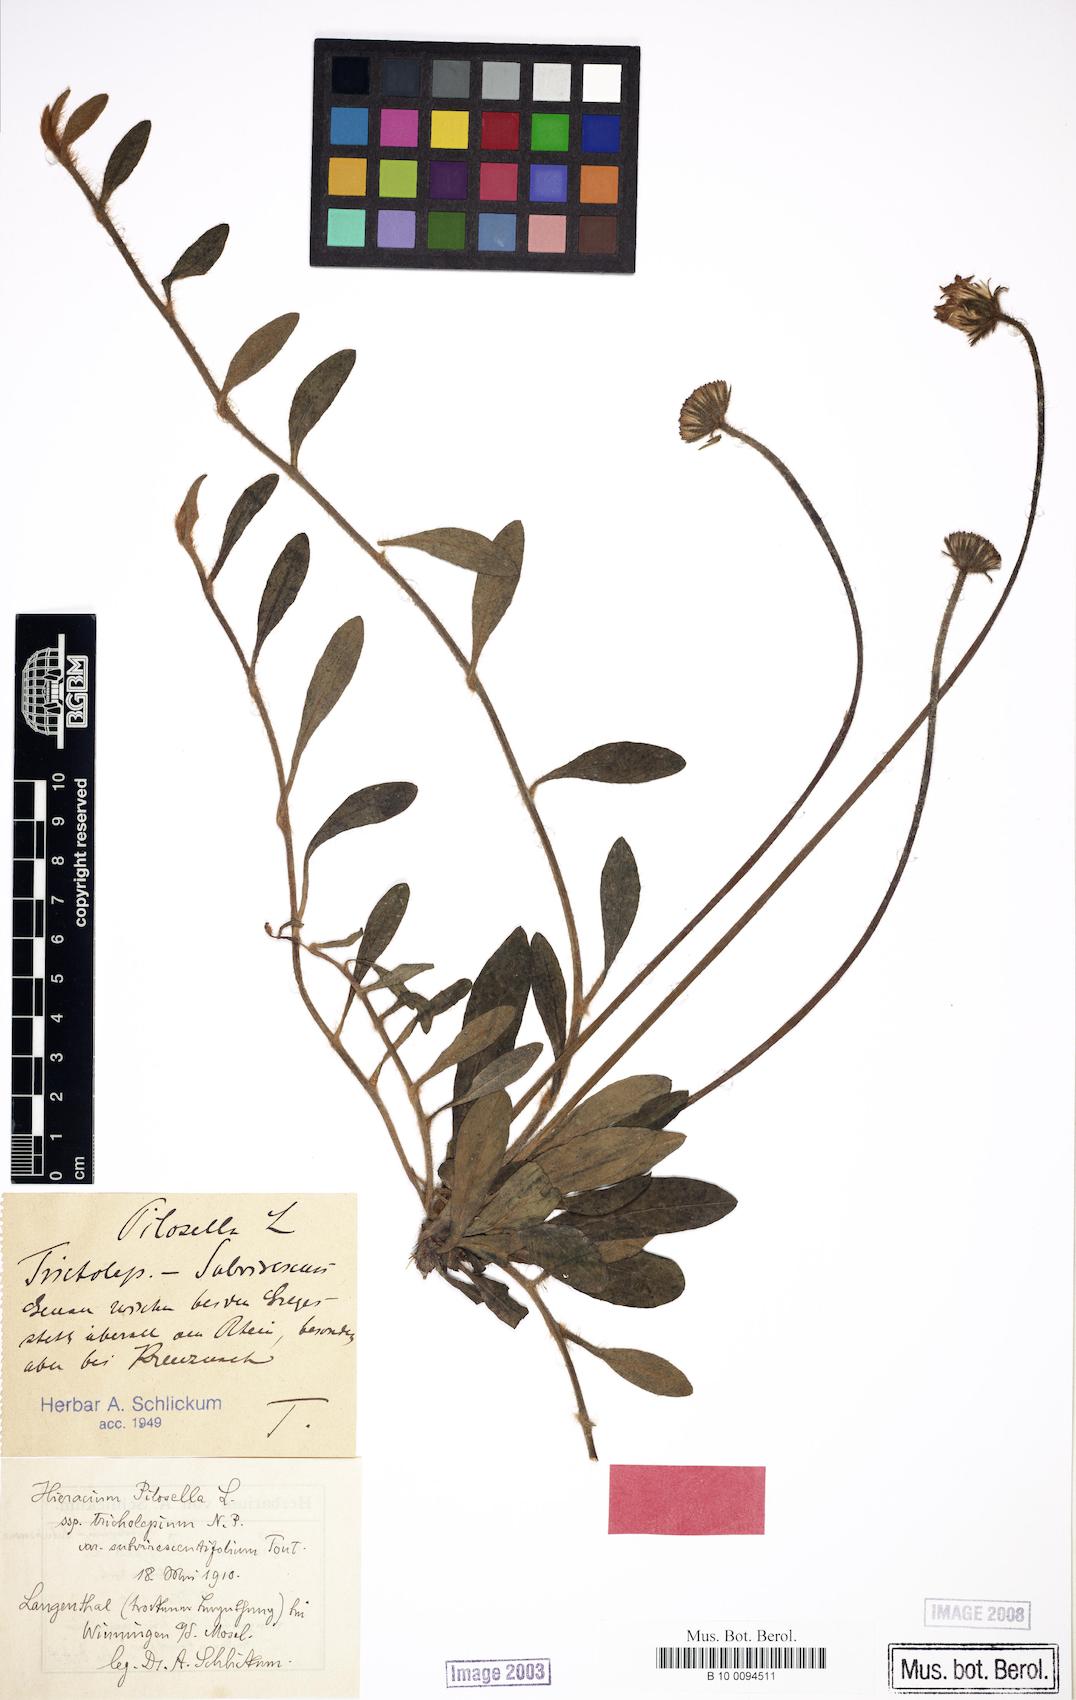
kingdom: Plantae
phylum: Tracheophyta
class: Magnoliopsida
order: Asterales
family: Asteraceae
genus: Pilosella
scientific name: Pilosella officinarum
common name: Mouse-ear hawkweed
